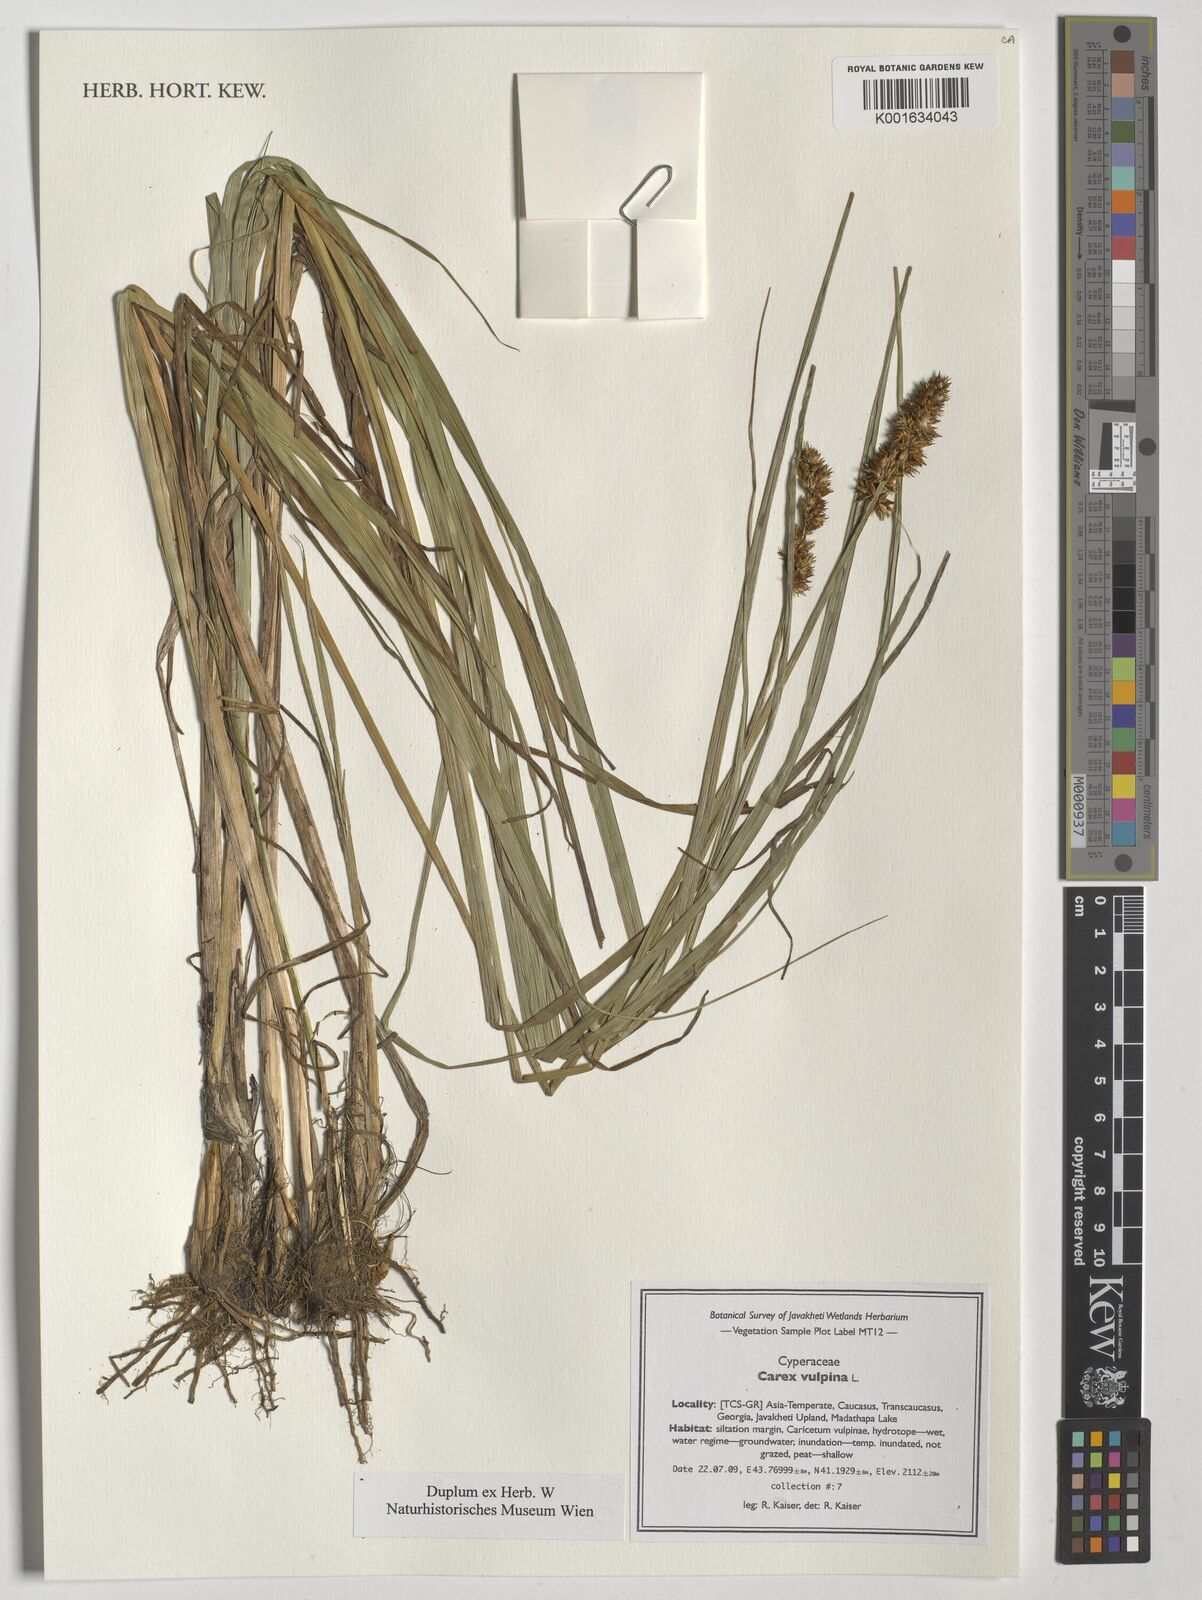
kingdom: Plantae
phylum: Tracheophyta
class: Liliopsida
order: Poales
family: Cyperaceae
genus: Carex
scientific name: Carex vulpina
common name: True fox-sedge
